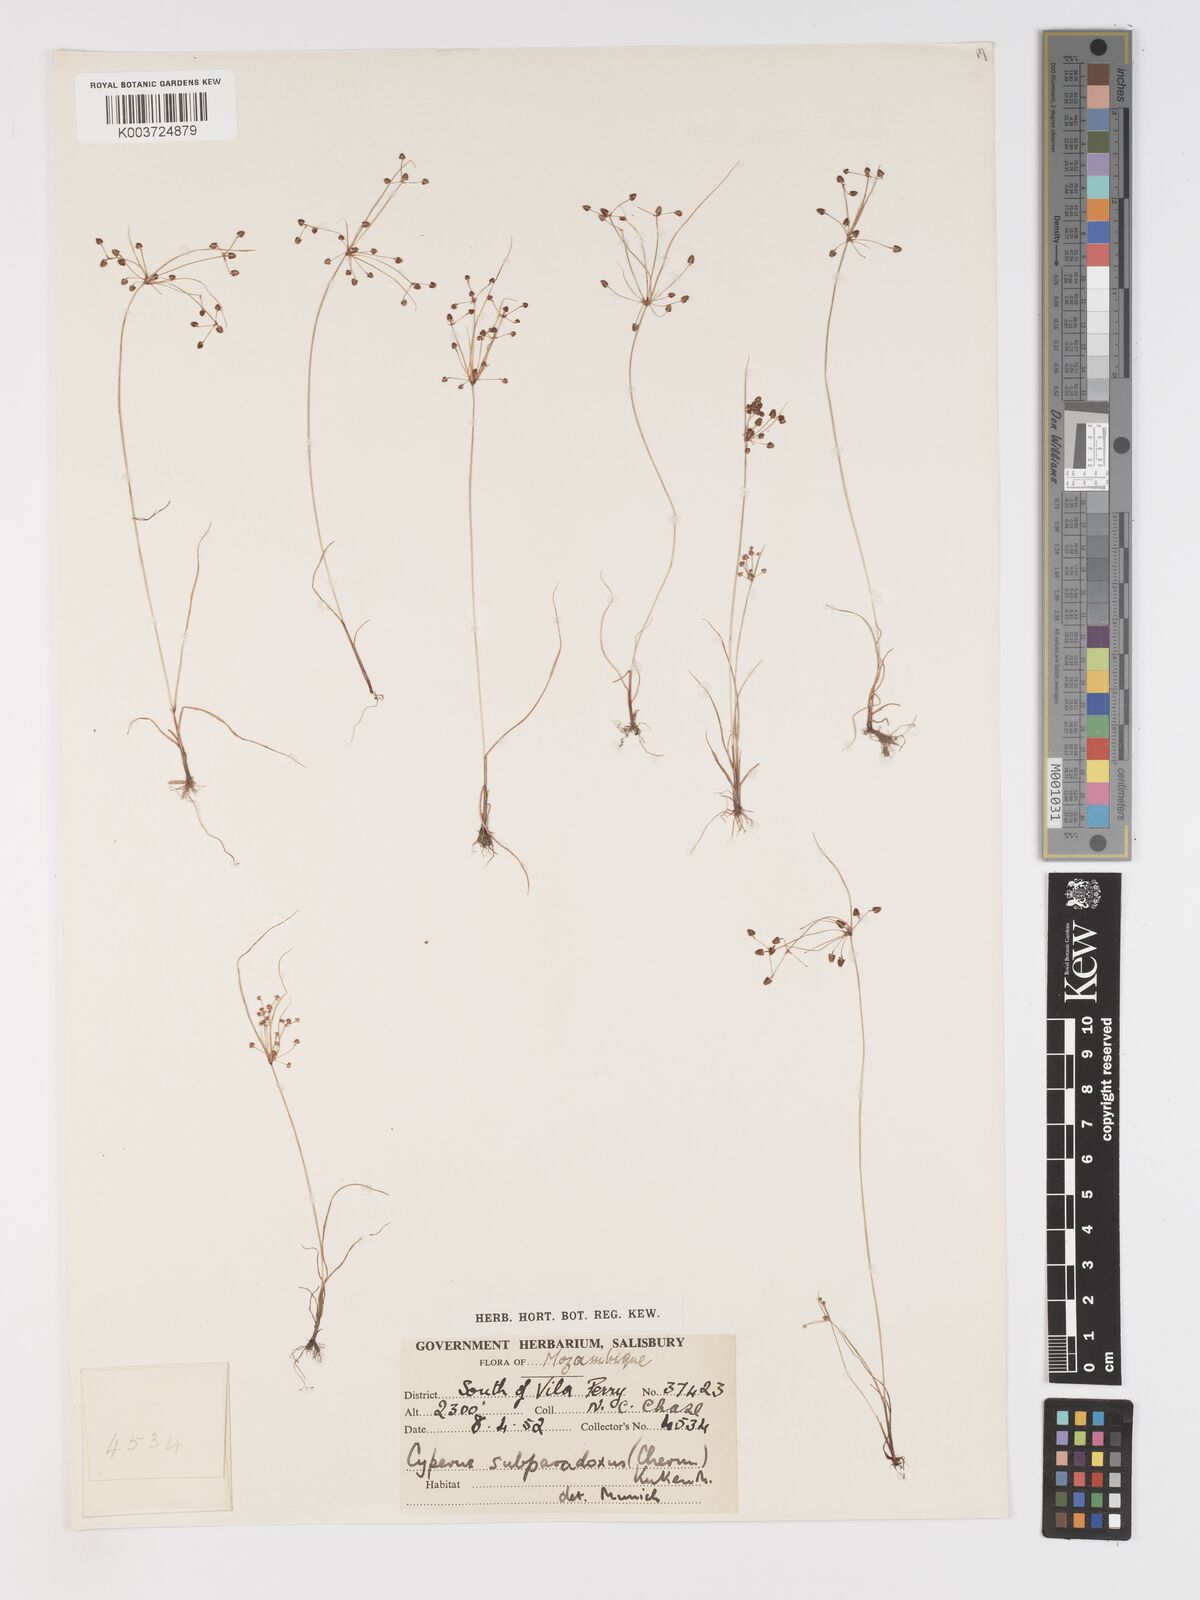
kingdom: Plantae
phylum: Tracheophyta
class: Liliopsida
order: Poales
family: Cyperaceae
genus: Cyperus
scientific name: Cyperus subparadoxus
